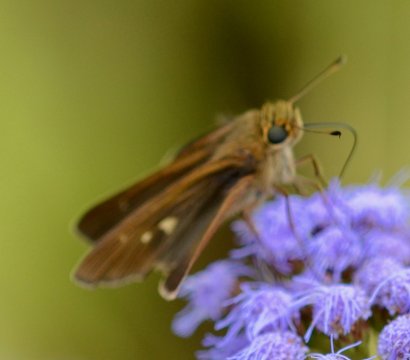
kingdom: Animalia
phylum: Arthropoda
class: Insecta
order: Lepidoptera
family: Hesperiidae
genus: Panoquina
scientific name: Panoquina ocola
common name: Ocola Skipper
